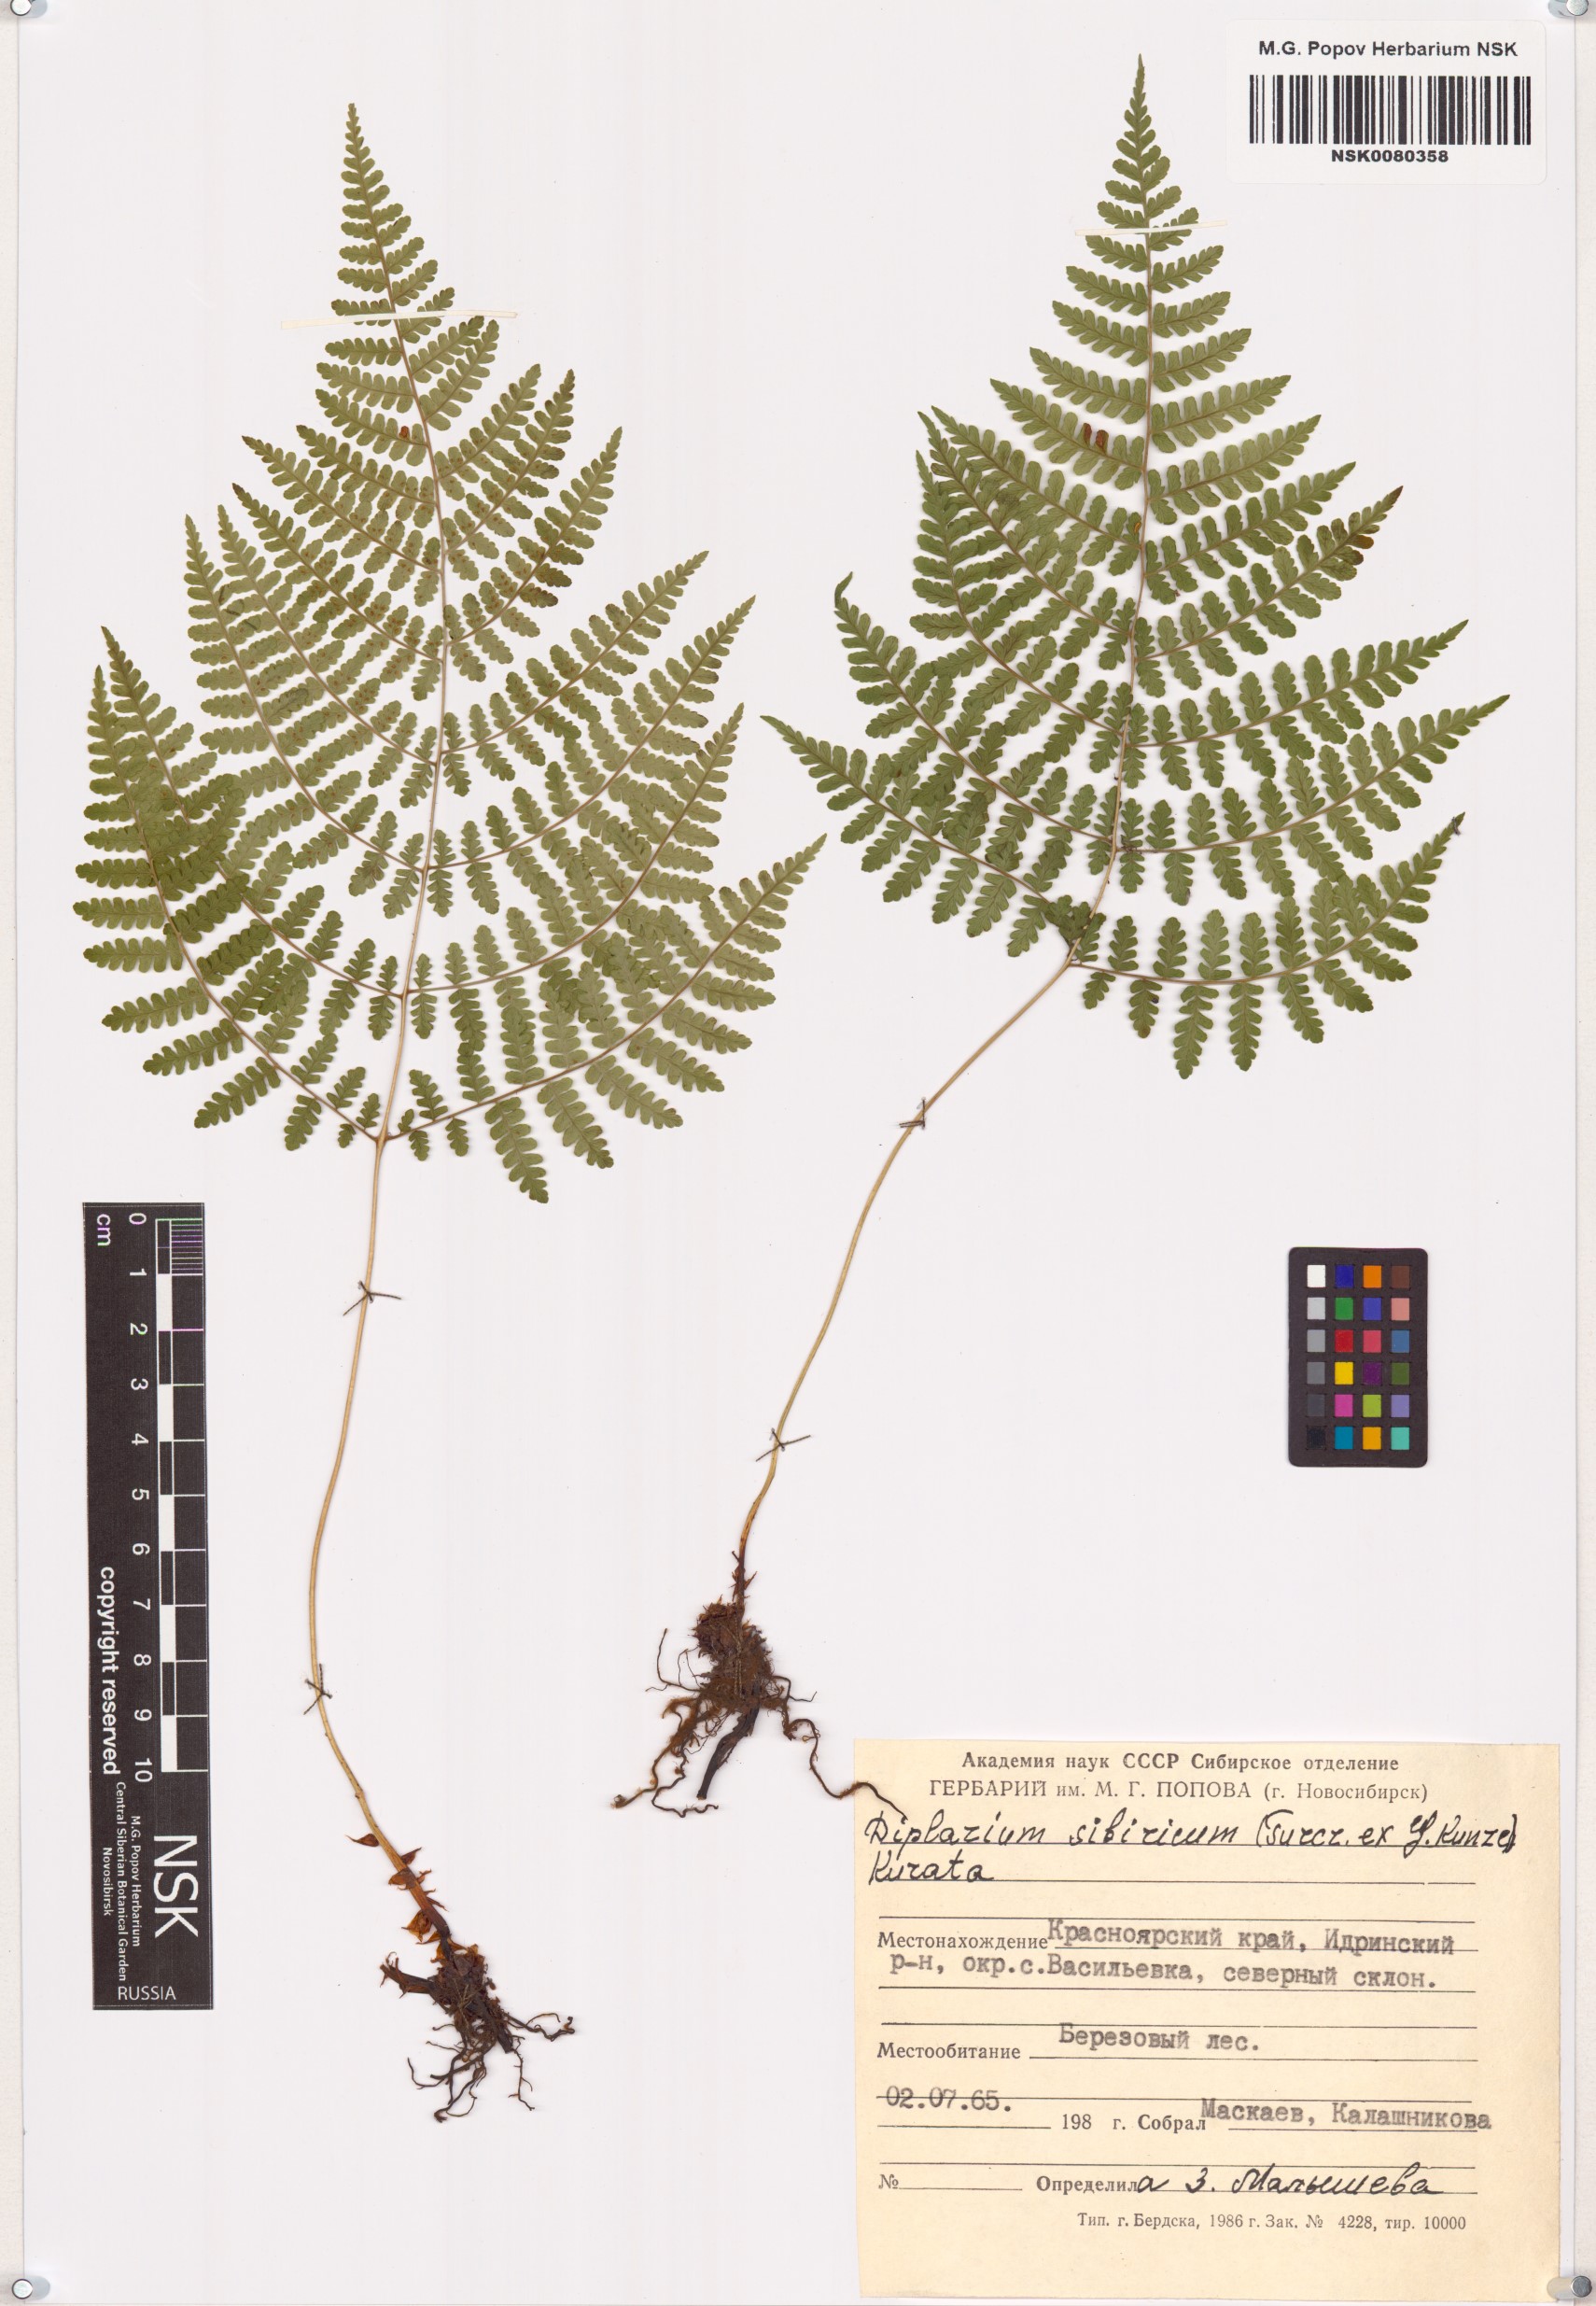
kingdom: Plantae
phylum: Tracheophyta
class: Polypodiopsida
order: Polypodiales
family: Athyriaceae
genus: Diplazium
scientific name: Diplazium sibiricum
